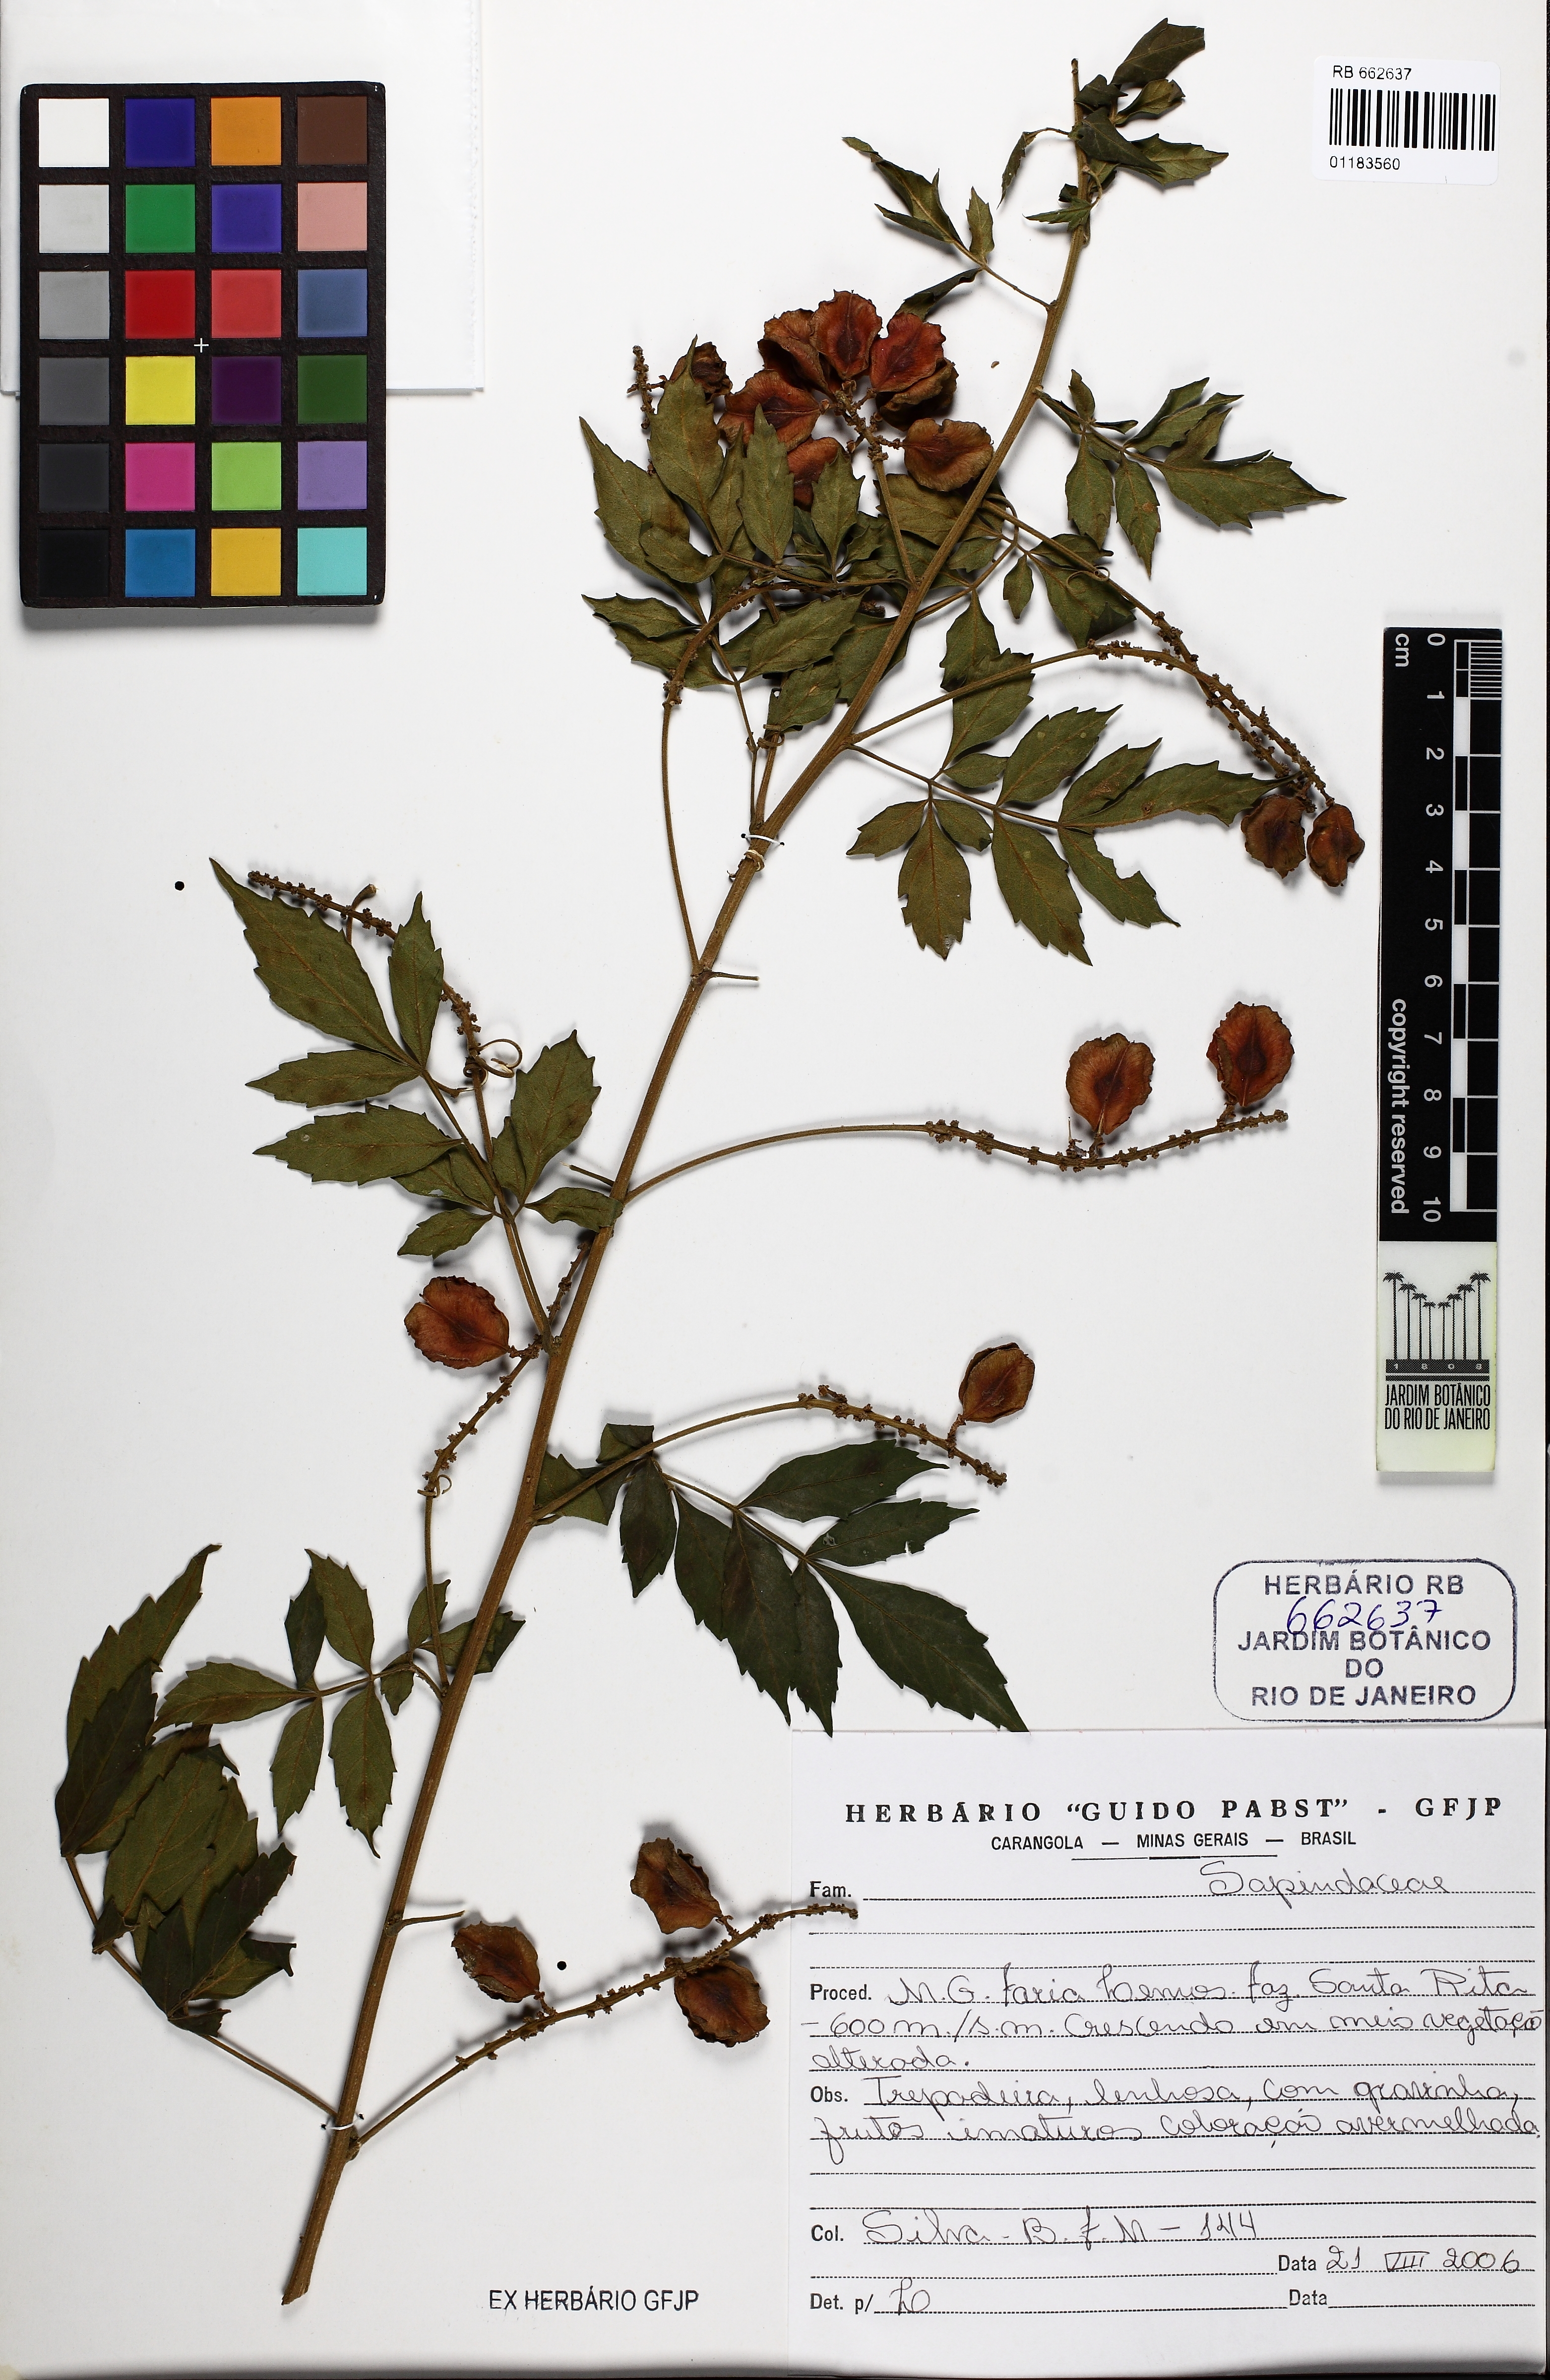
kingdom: Plantae
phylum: Tracheophyta
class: Magnoliopsida
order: Sapindales
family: Sapindaceae
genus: Paullinia
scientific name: Paullinia uloptera
